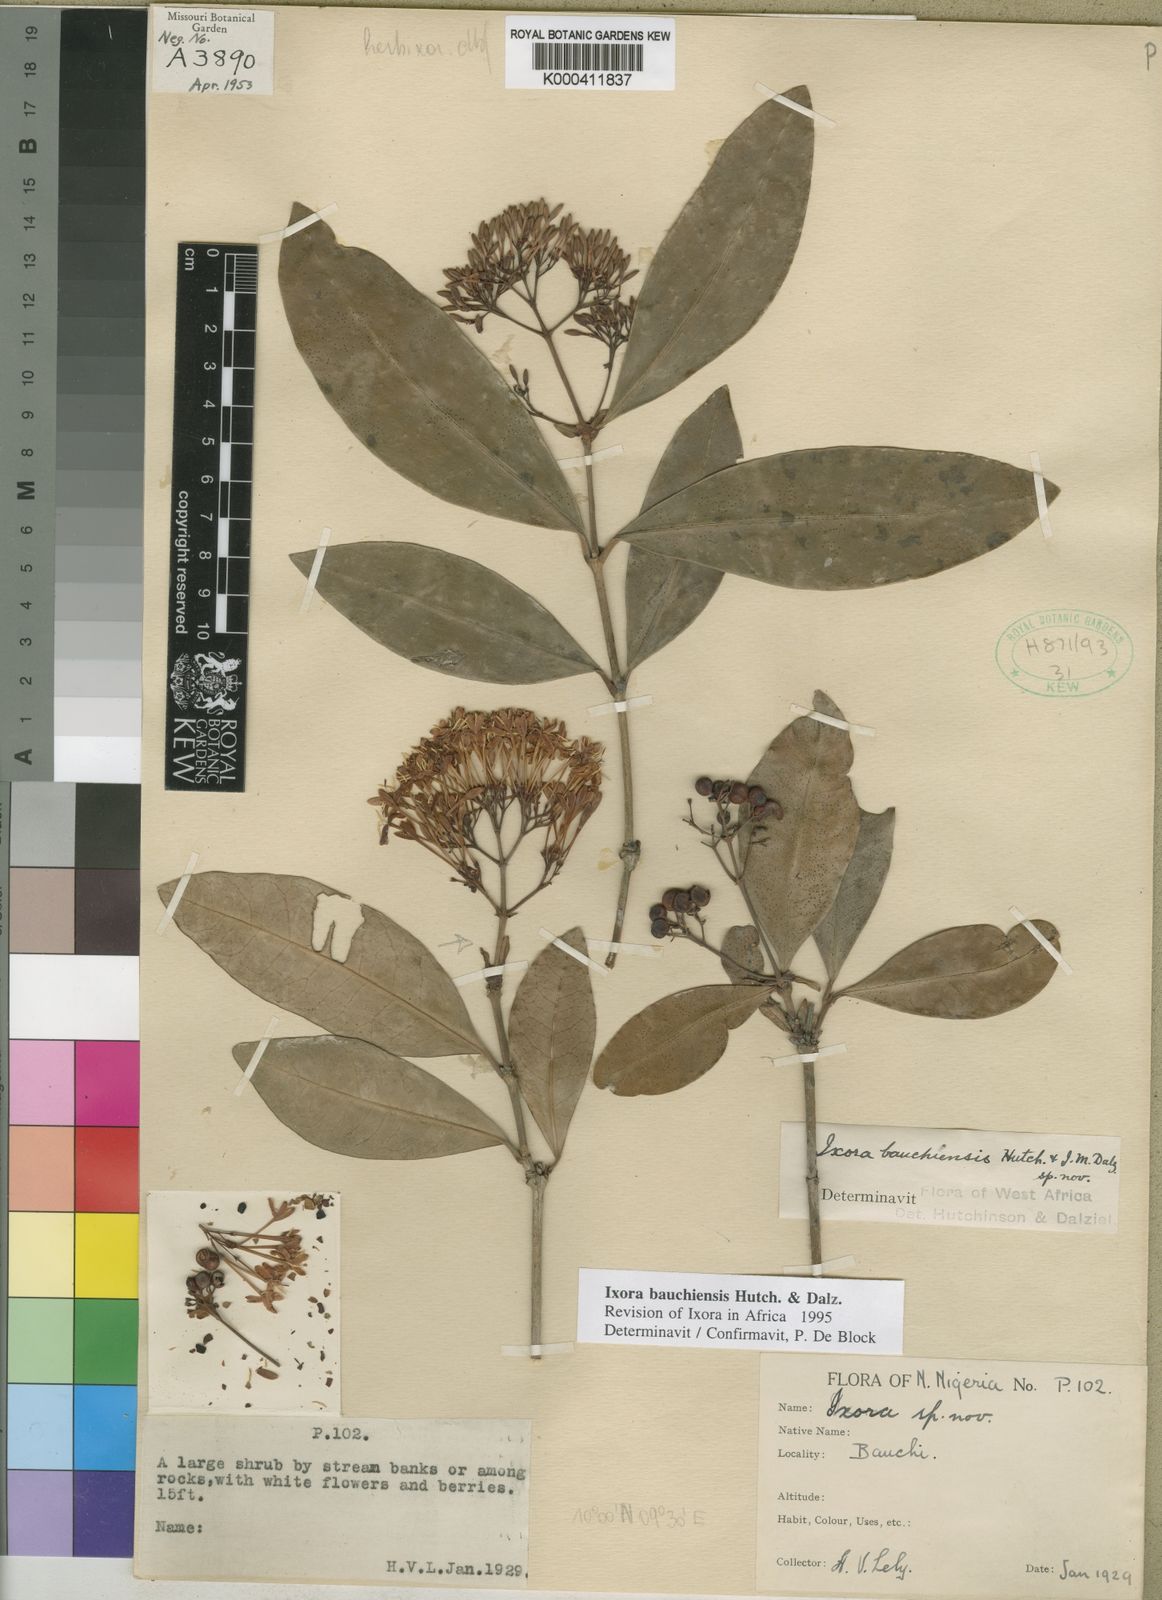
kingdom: Plantae
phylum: Tracheophyta
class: Magnoliopsida
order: Gentianales
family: Rubiaceae
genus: Ixora
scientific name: Ixora bauchiensis
